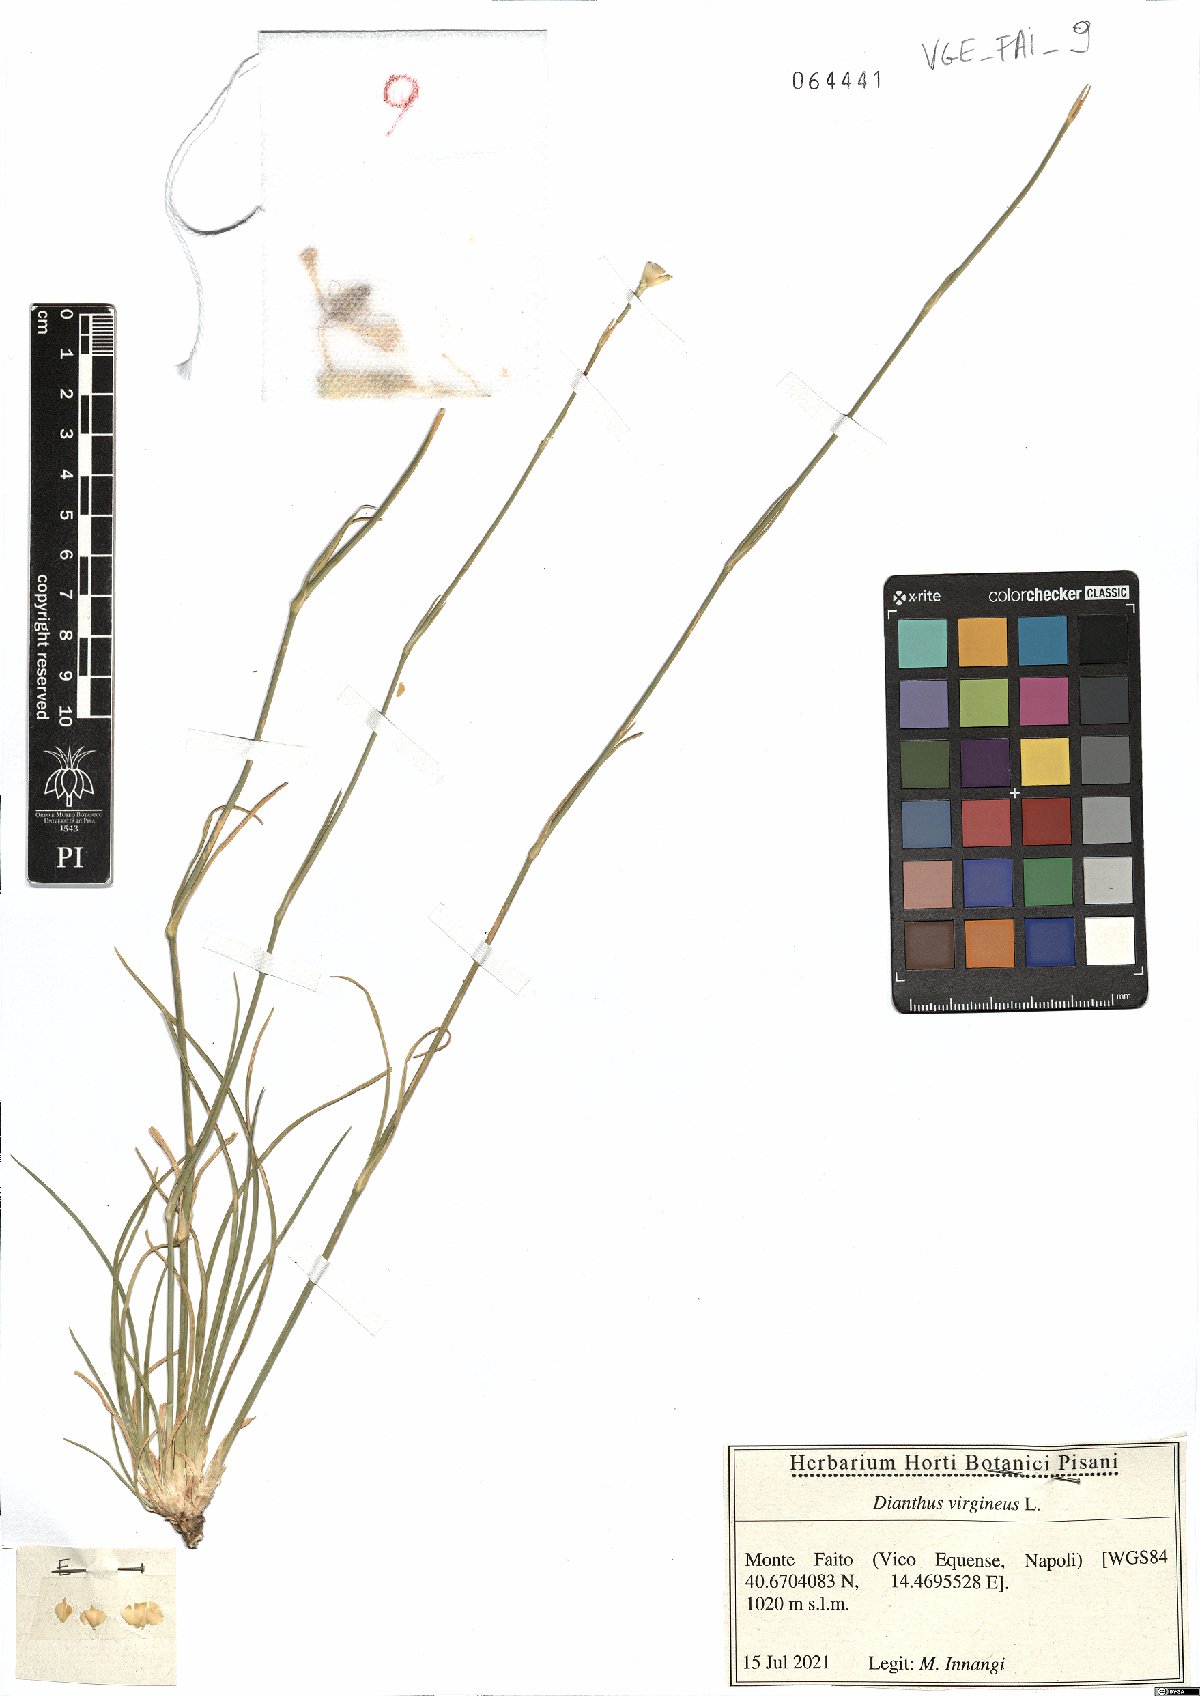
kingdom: Plantae
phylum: Tracheophyta
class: Magnoliopsida
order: Caryophyllales
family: Caryophyllaceae
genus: Dianthus
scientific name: Dianthus virgineus
